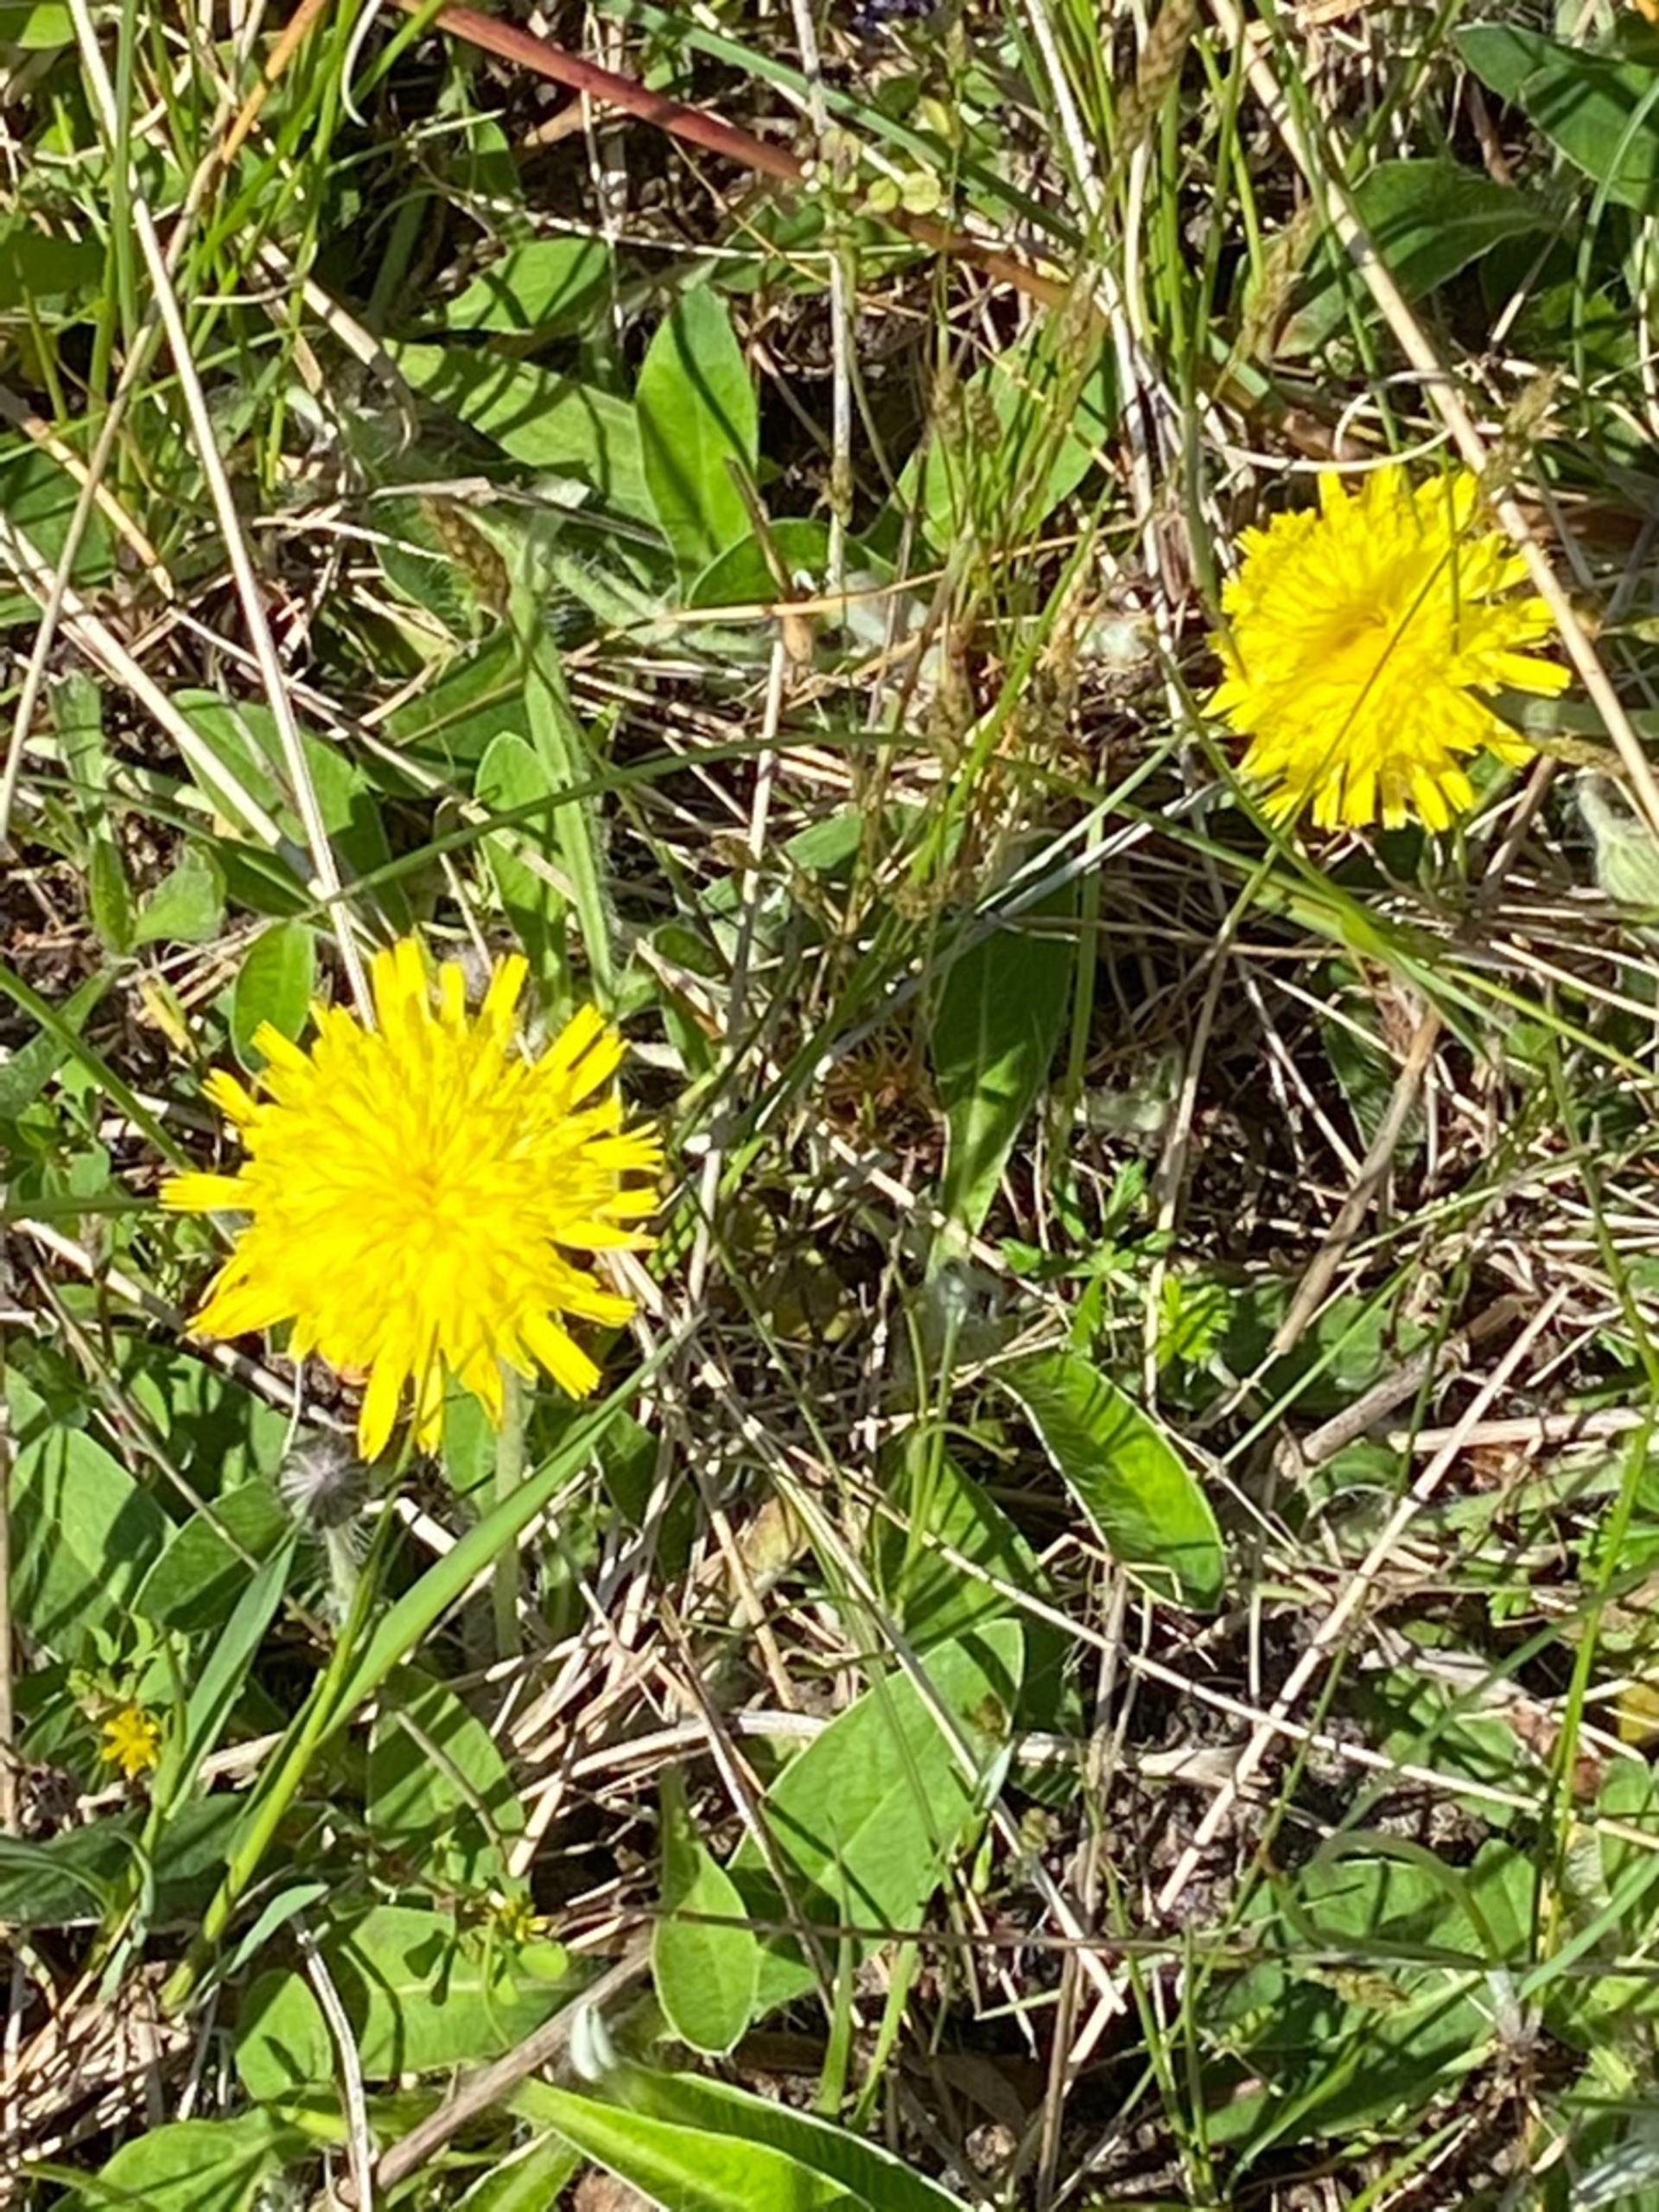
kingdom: Plantae
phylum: Tracheophyta
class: Magnoliopsida
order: Asterales
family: Asteraceae
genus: Pilosella
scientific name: Pilosella officinarum
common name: Håret høgeurt
